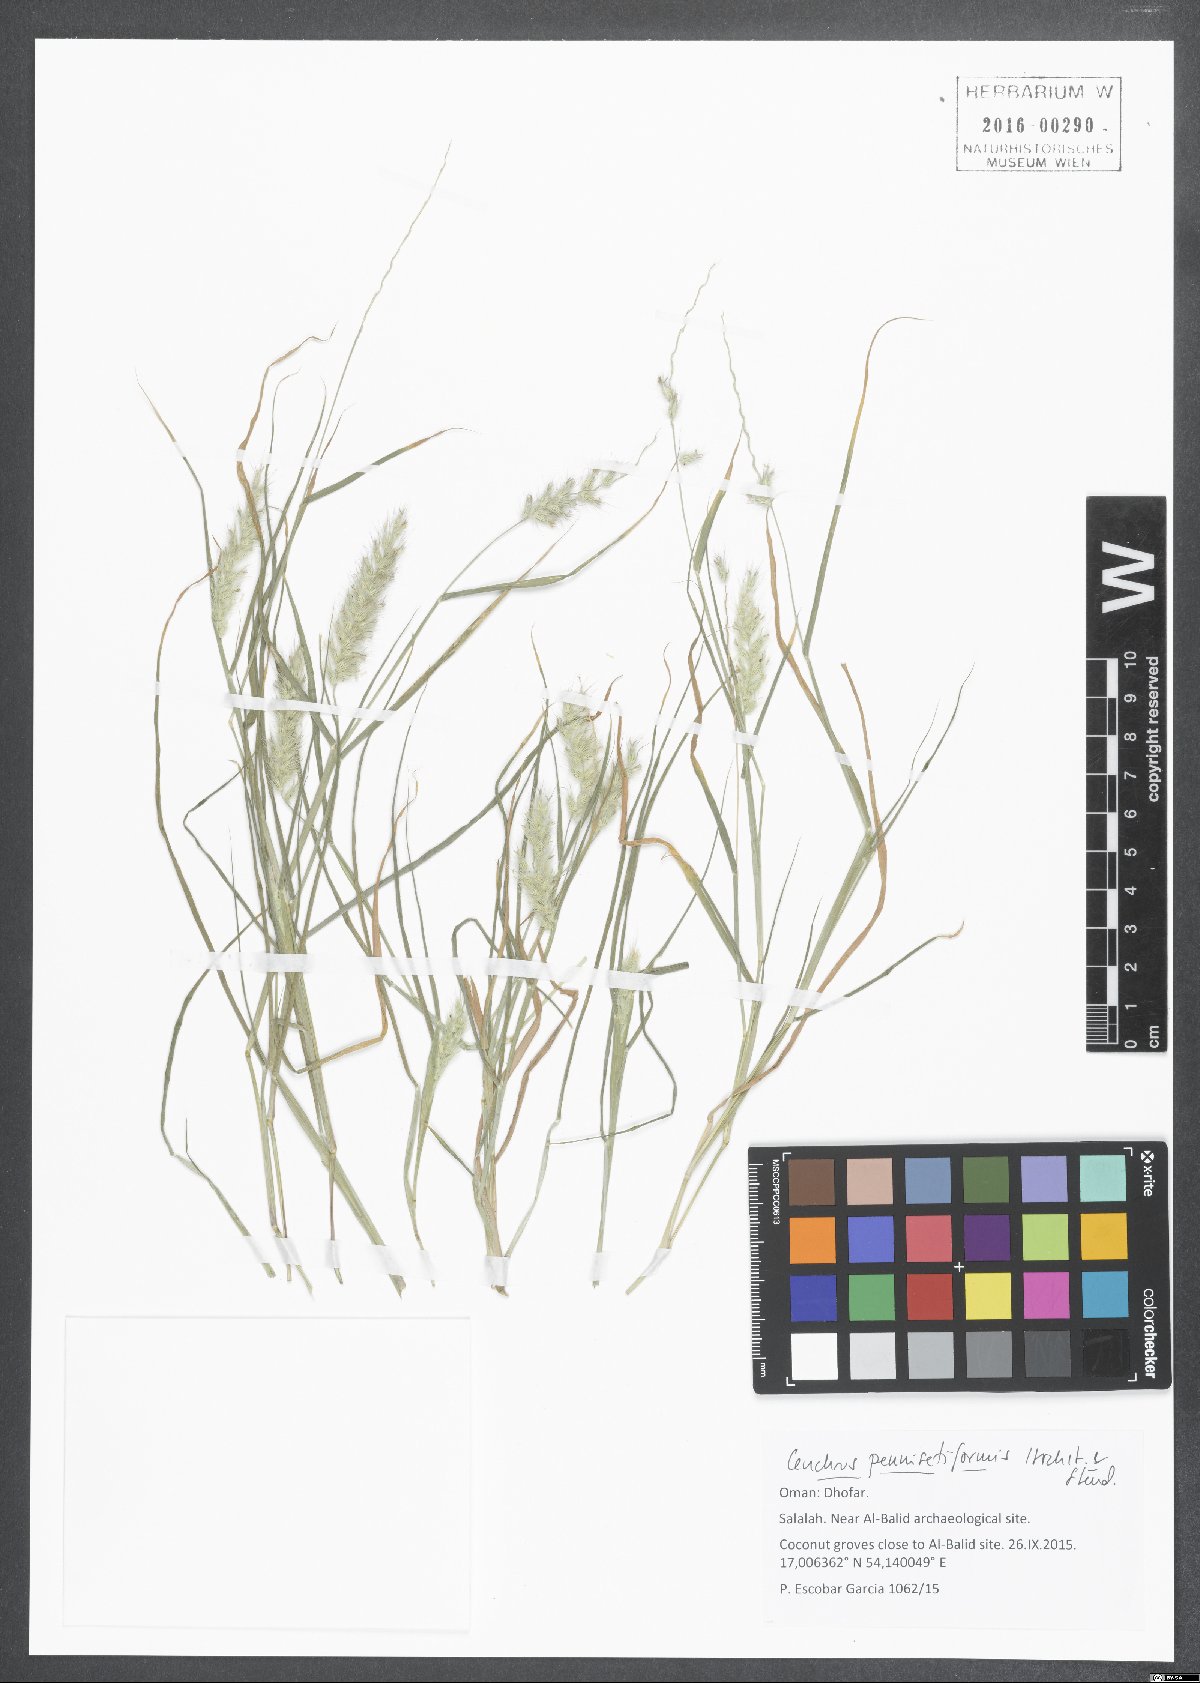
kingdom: Plantae
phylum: Tracheophyta
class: Liliopsida
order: Poales
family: Poaceae
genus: Cenchrus
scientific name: Cenchrus pennisetiformis
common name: Cloncurry
